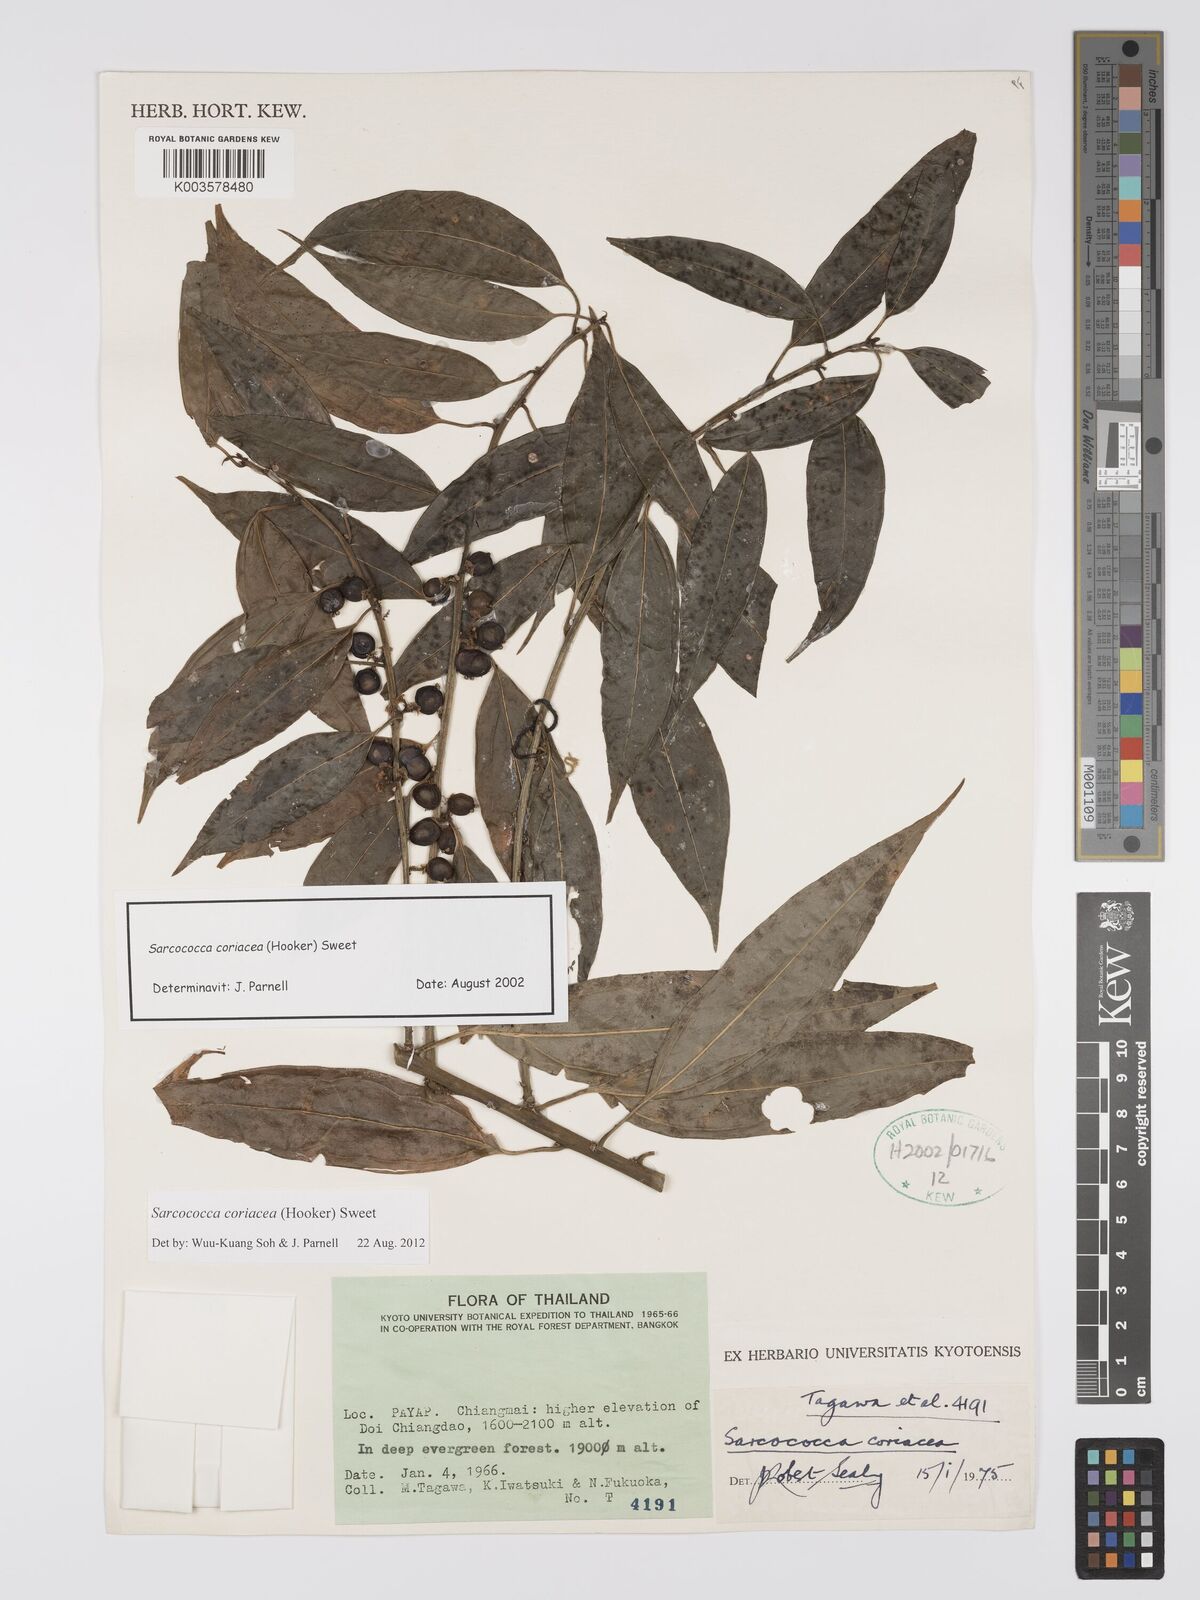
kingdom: Plantae
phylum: Tracheophyta
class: Magnoliopsida
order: Buxales
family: Buxaceae
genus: Sarcococca
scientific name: Sarcococca coriacea
